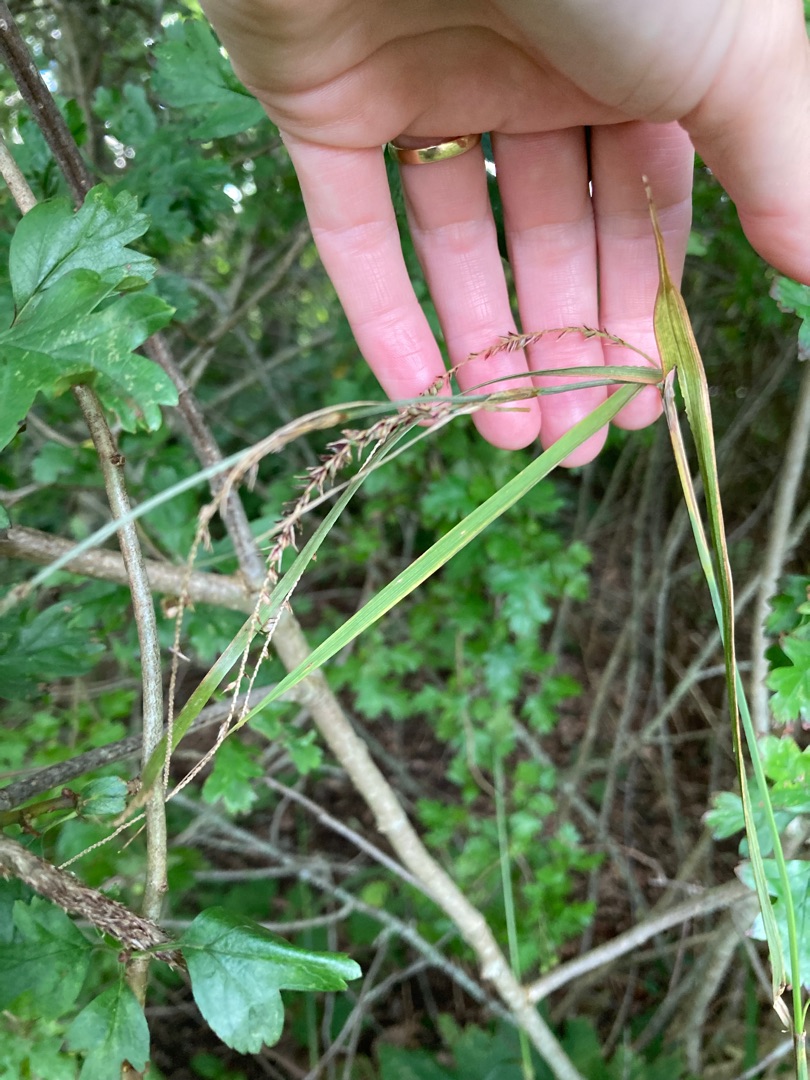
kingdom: Plantae
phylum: Tracheophyta
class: Liliopsida
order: Poales
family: Cyperaceae
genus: Carex
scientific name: Carex pendula
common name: Kæmpe-star
